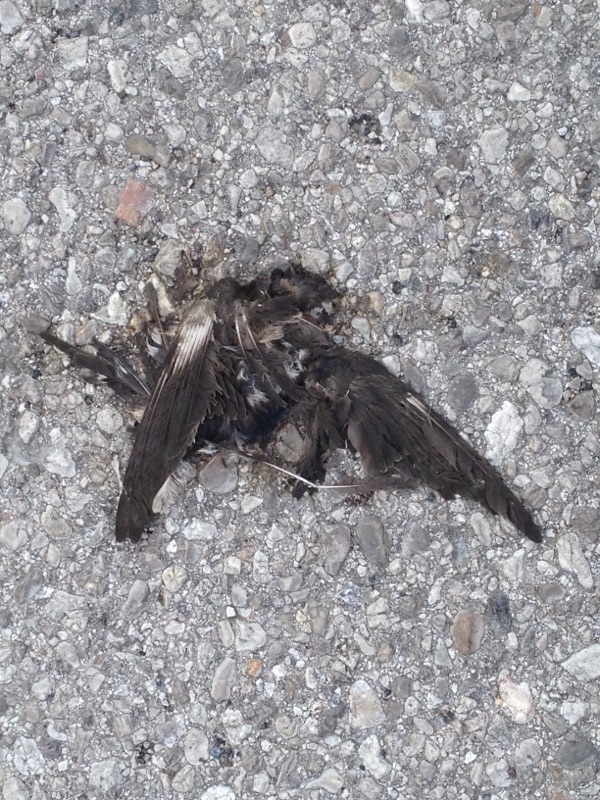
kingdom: Animalia
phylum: Chordata
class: Aves
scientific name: Aves
